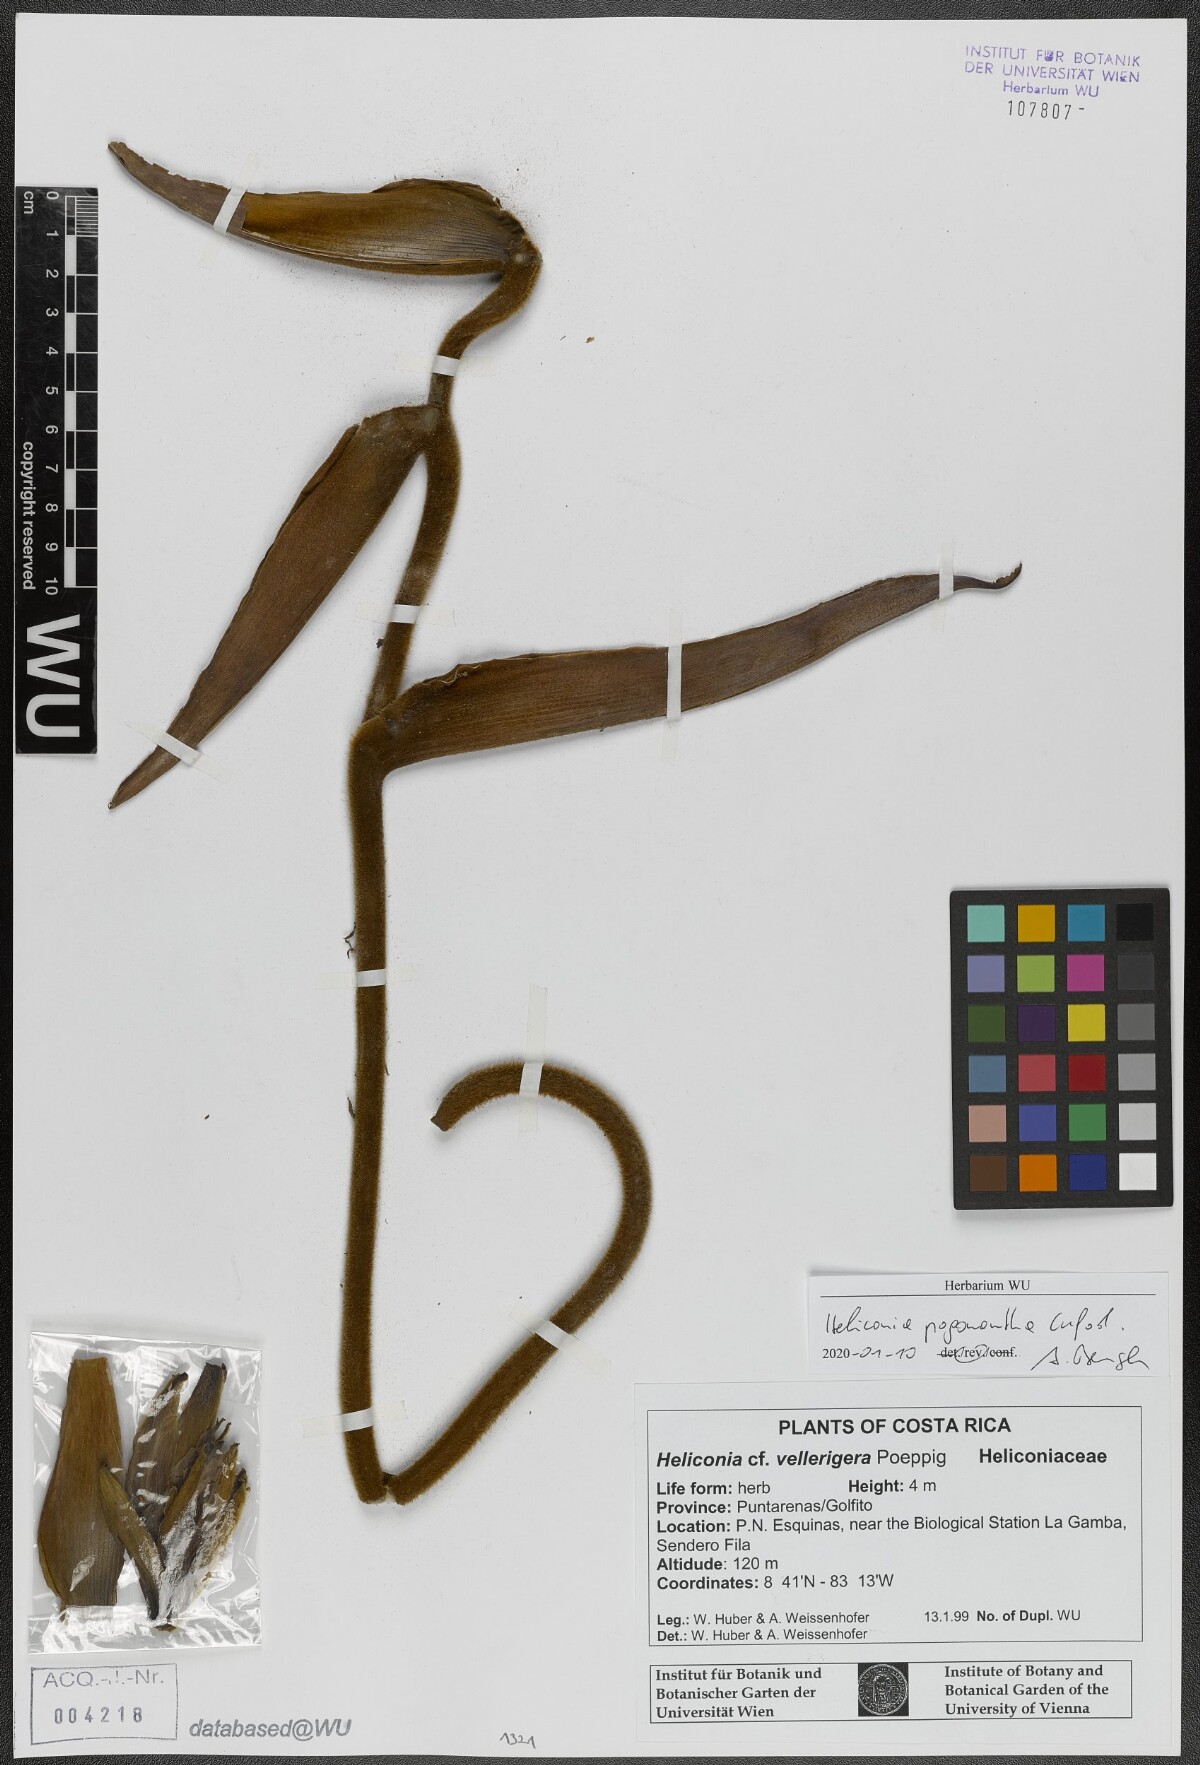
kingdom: Plantae
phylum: Tracheophyta
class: Liliopsida
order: Zingiberales
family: Heliconiaceae
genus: Heliconia
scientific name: Heliconia pogonantha
